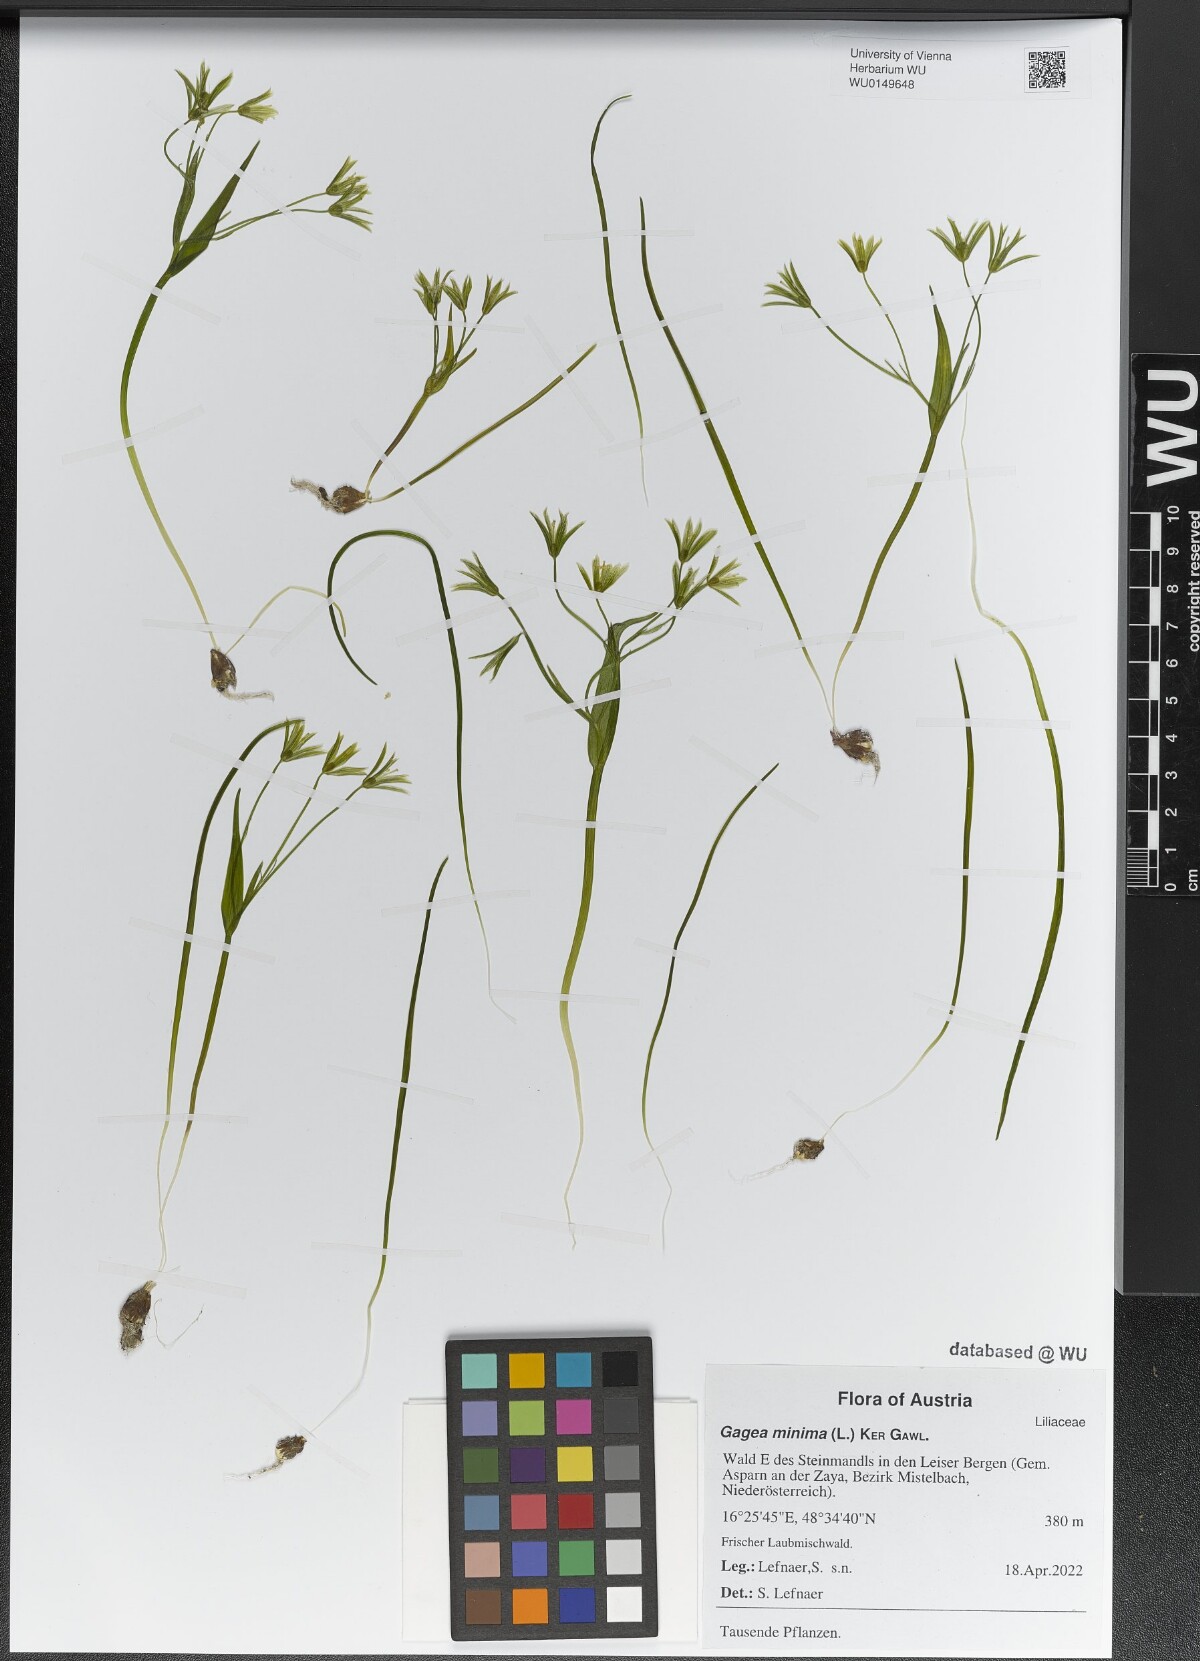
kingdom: Plantae
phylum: Tracheophyta
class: Liliopsida
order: Liliales
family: Liliaceae
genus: Gagea
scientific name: Gagea minima
